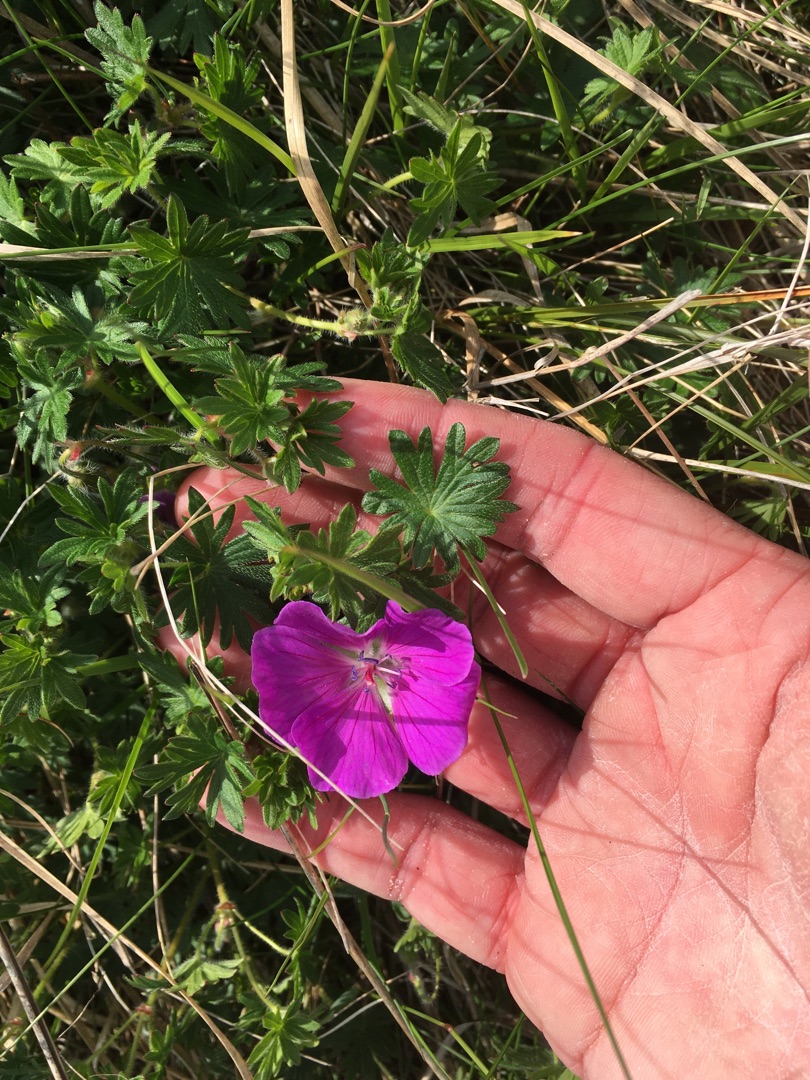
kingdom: Plantae
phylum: Tracheophyta
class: Magnoliopsida
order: Geraniales
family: Geraniaceae
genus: Geranium
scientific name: Geranium sanguineum
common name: Blodrød storkenæb
